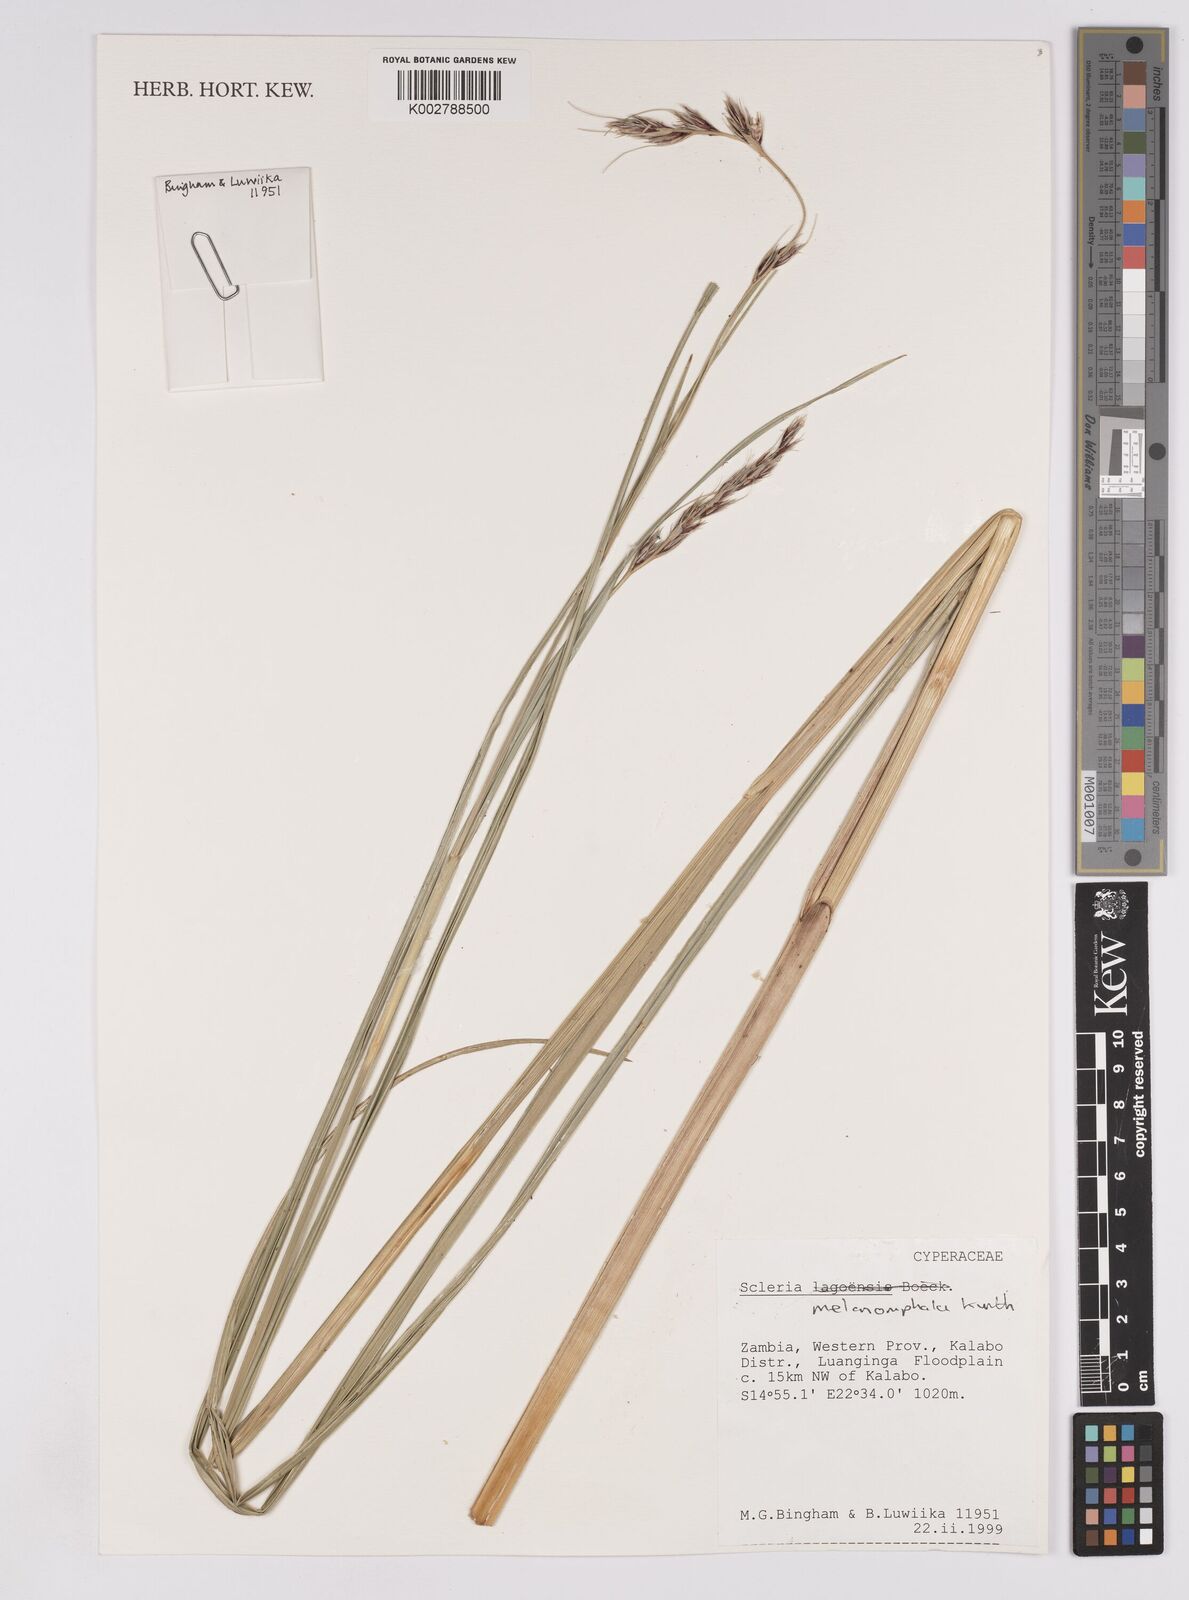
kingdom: Plantae
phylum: Tracheophyta
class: Liliopsida
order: Poales
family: Cyperaceae
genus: Scleria
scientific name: Scleria melanomphala
